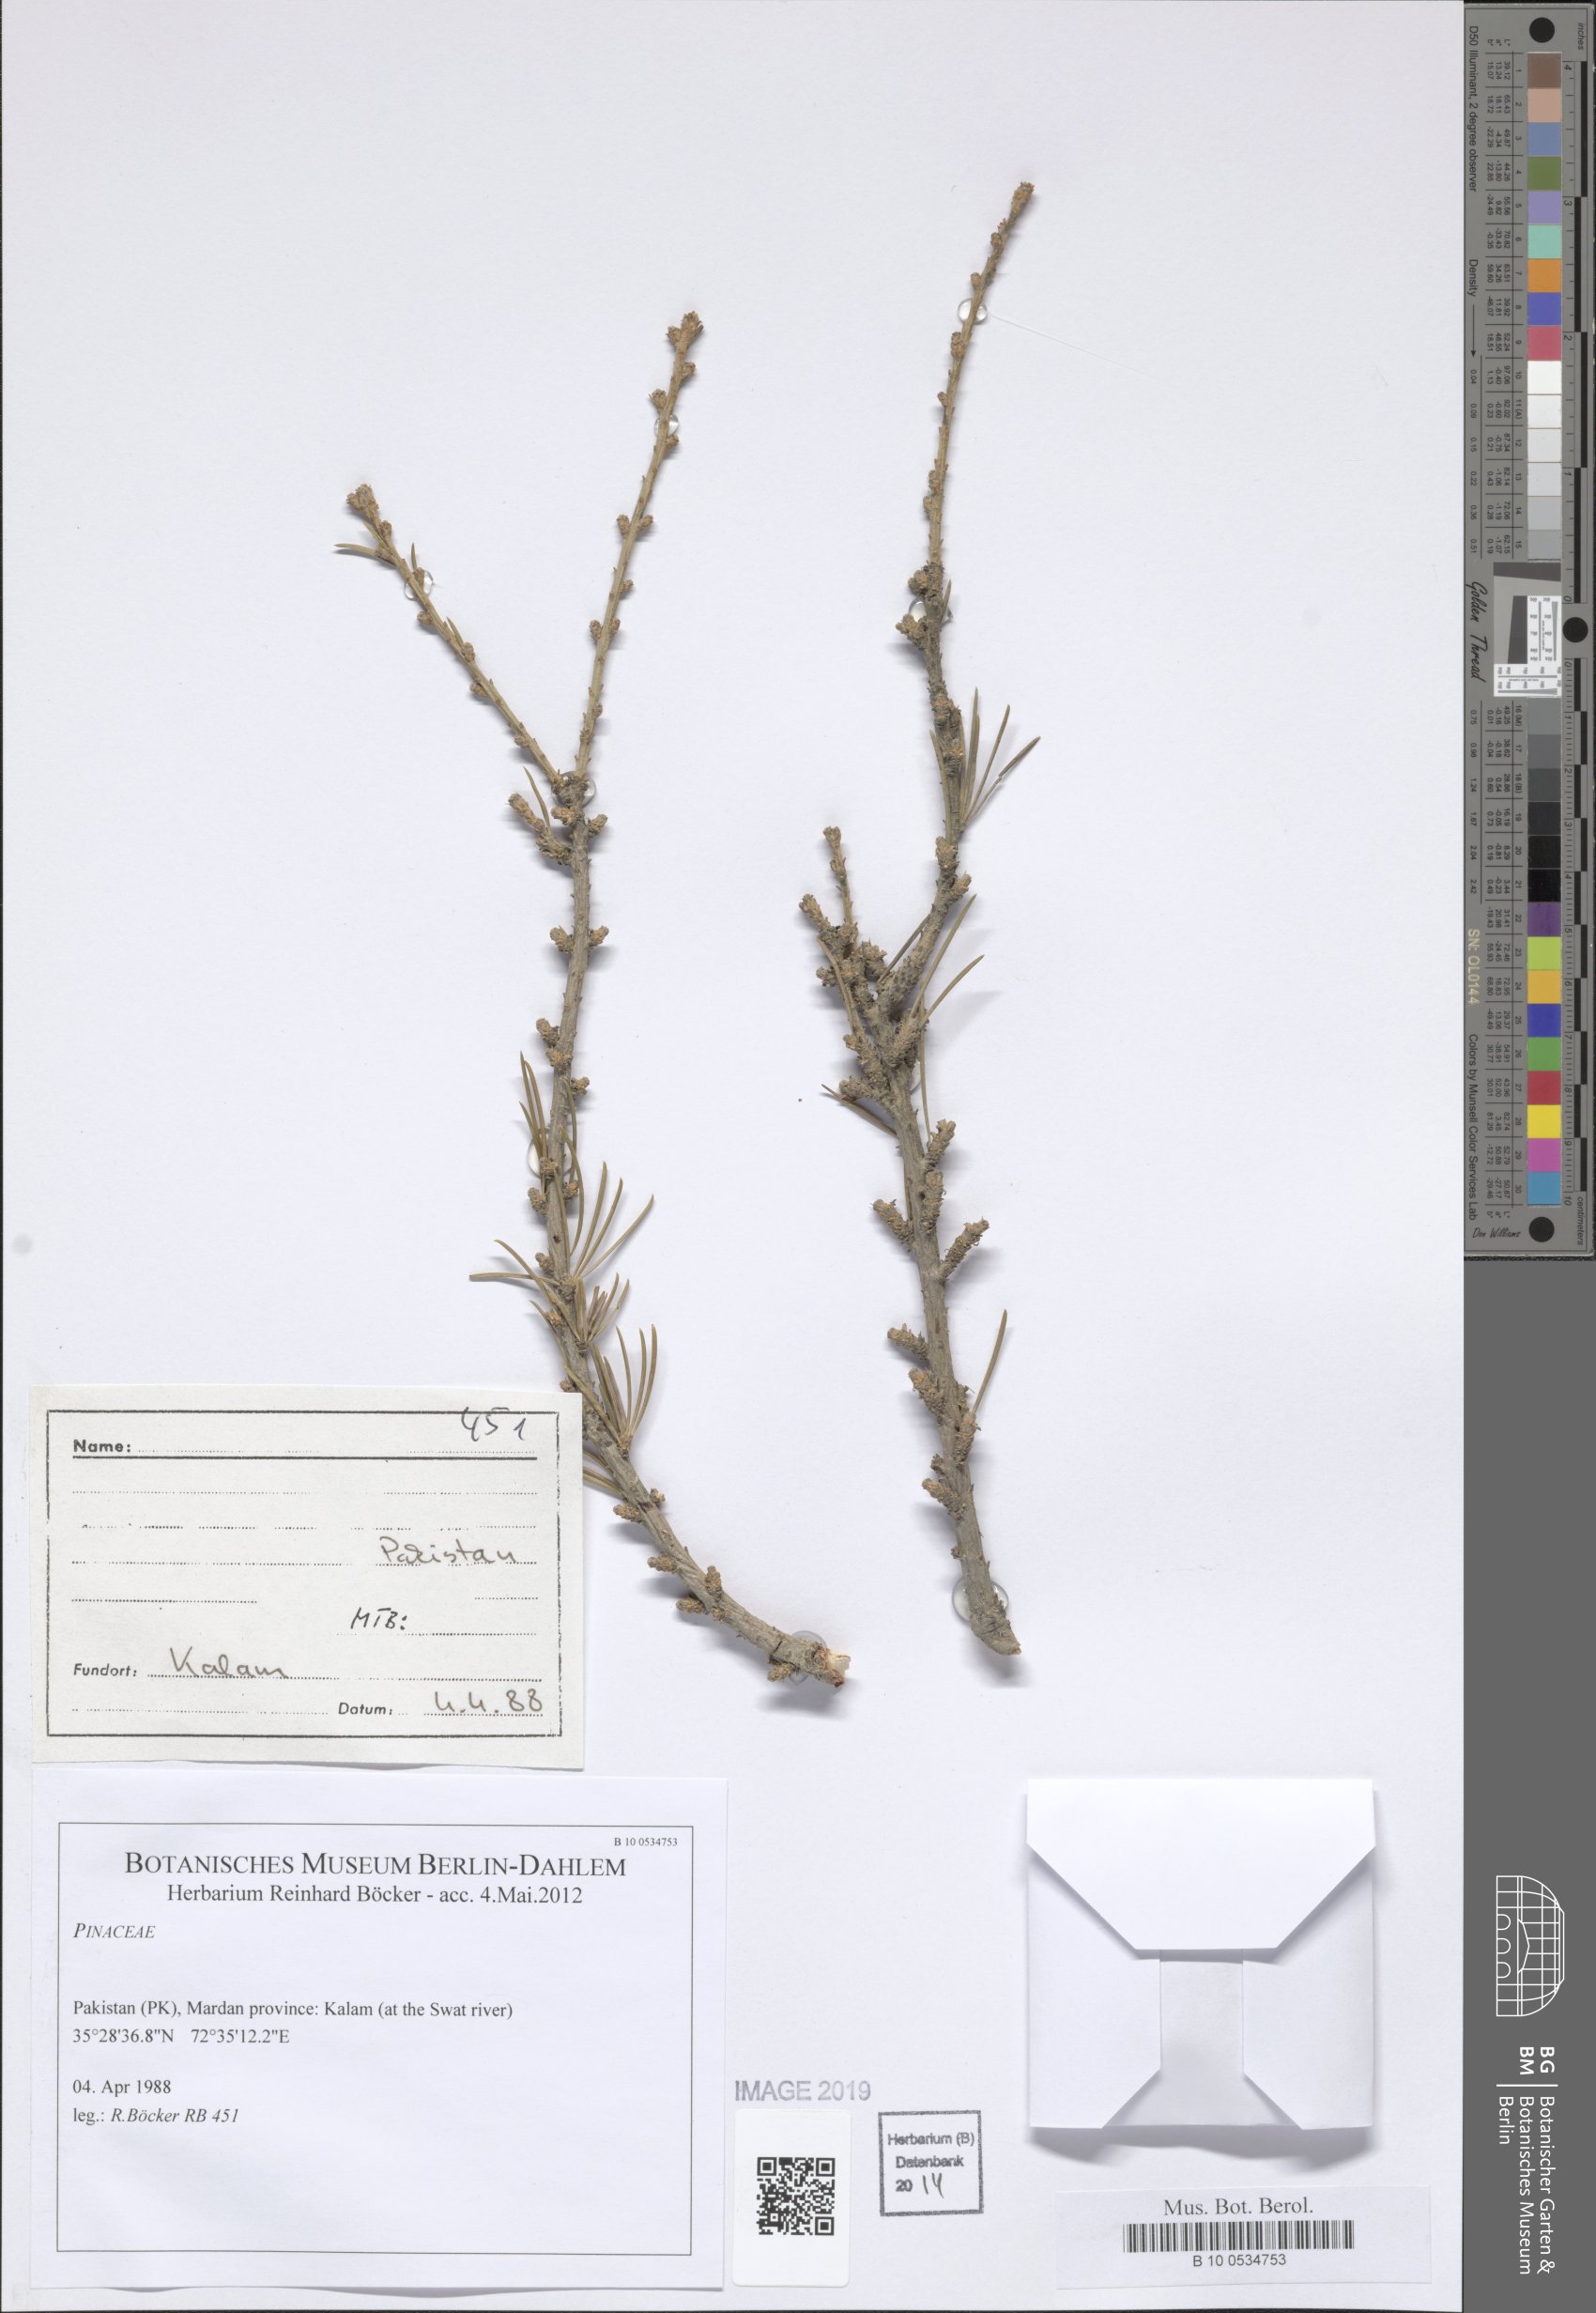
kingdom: Plantae
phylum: Tracheophyta
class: Pinopsida
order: Pinales
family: Pinaceae
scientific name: Pinaceae
